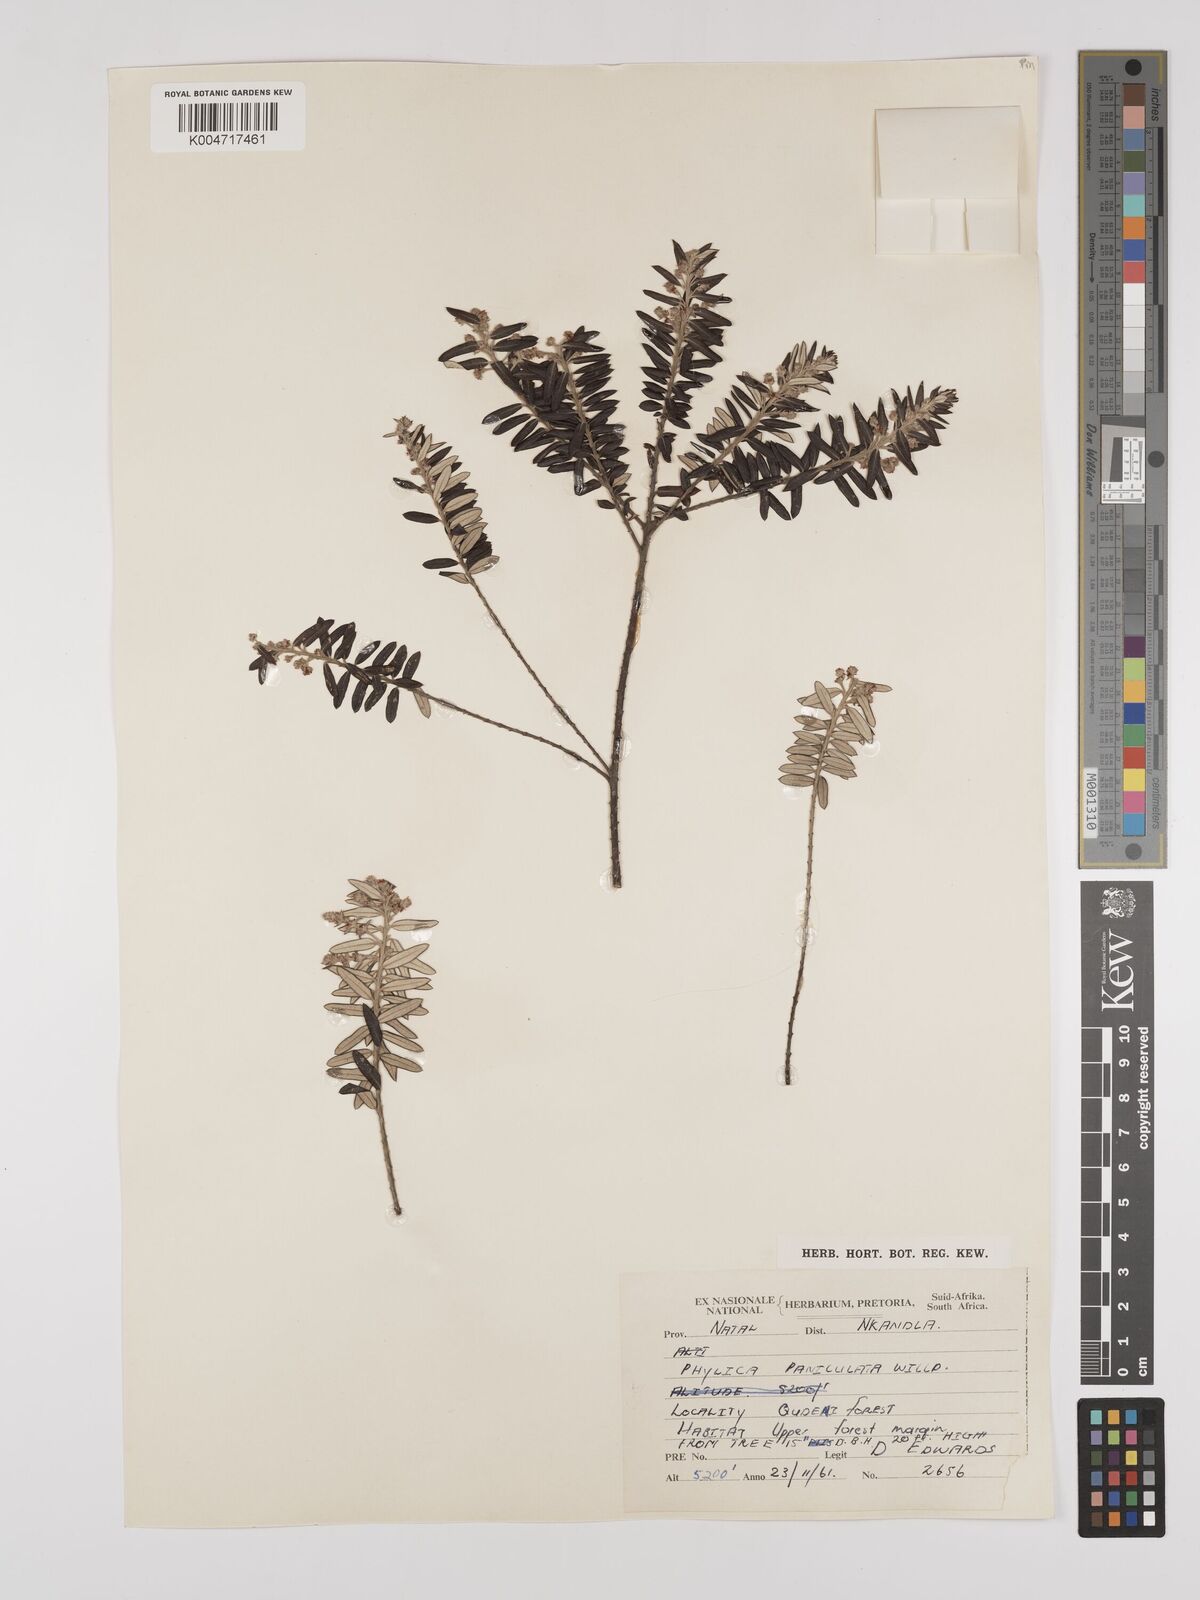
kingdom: Plantae
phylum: Tracheophyta
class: Magnoliopsida
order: Rosales
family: Rhamnaceae
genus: Phylica
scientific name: Phylica paniculata
